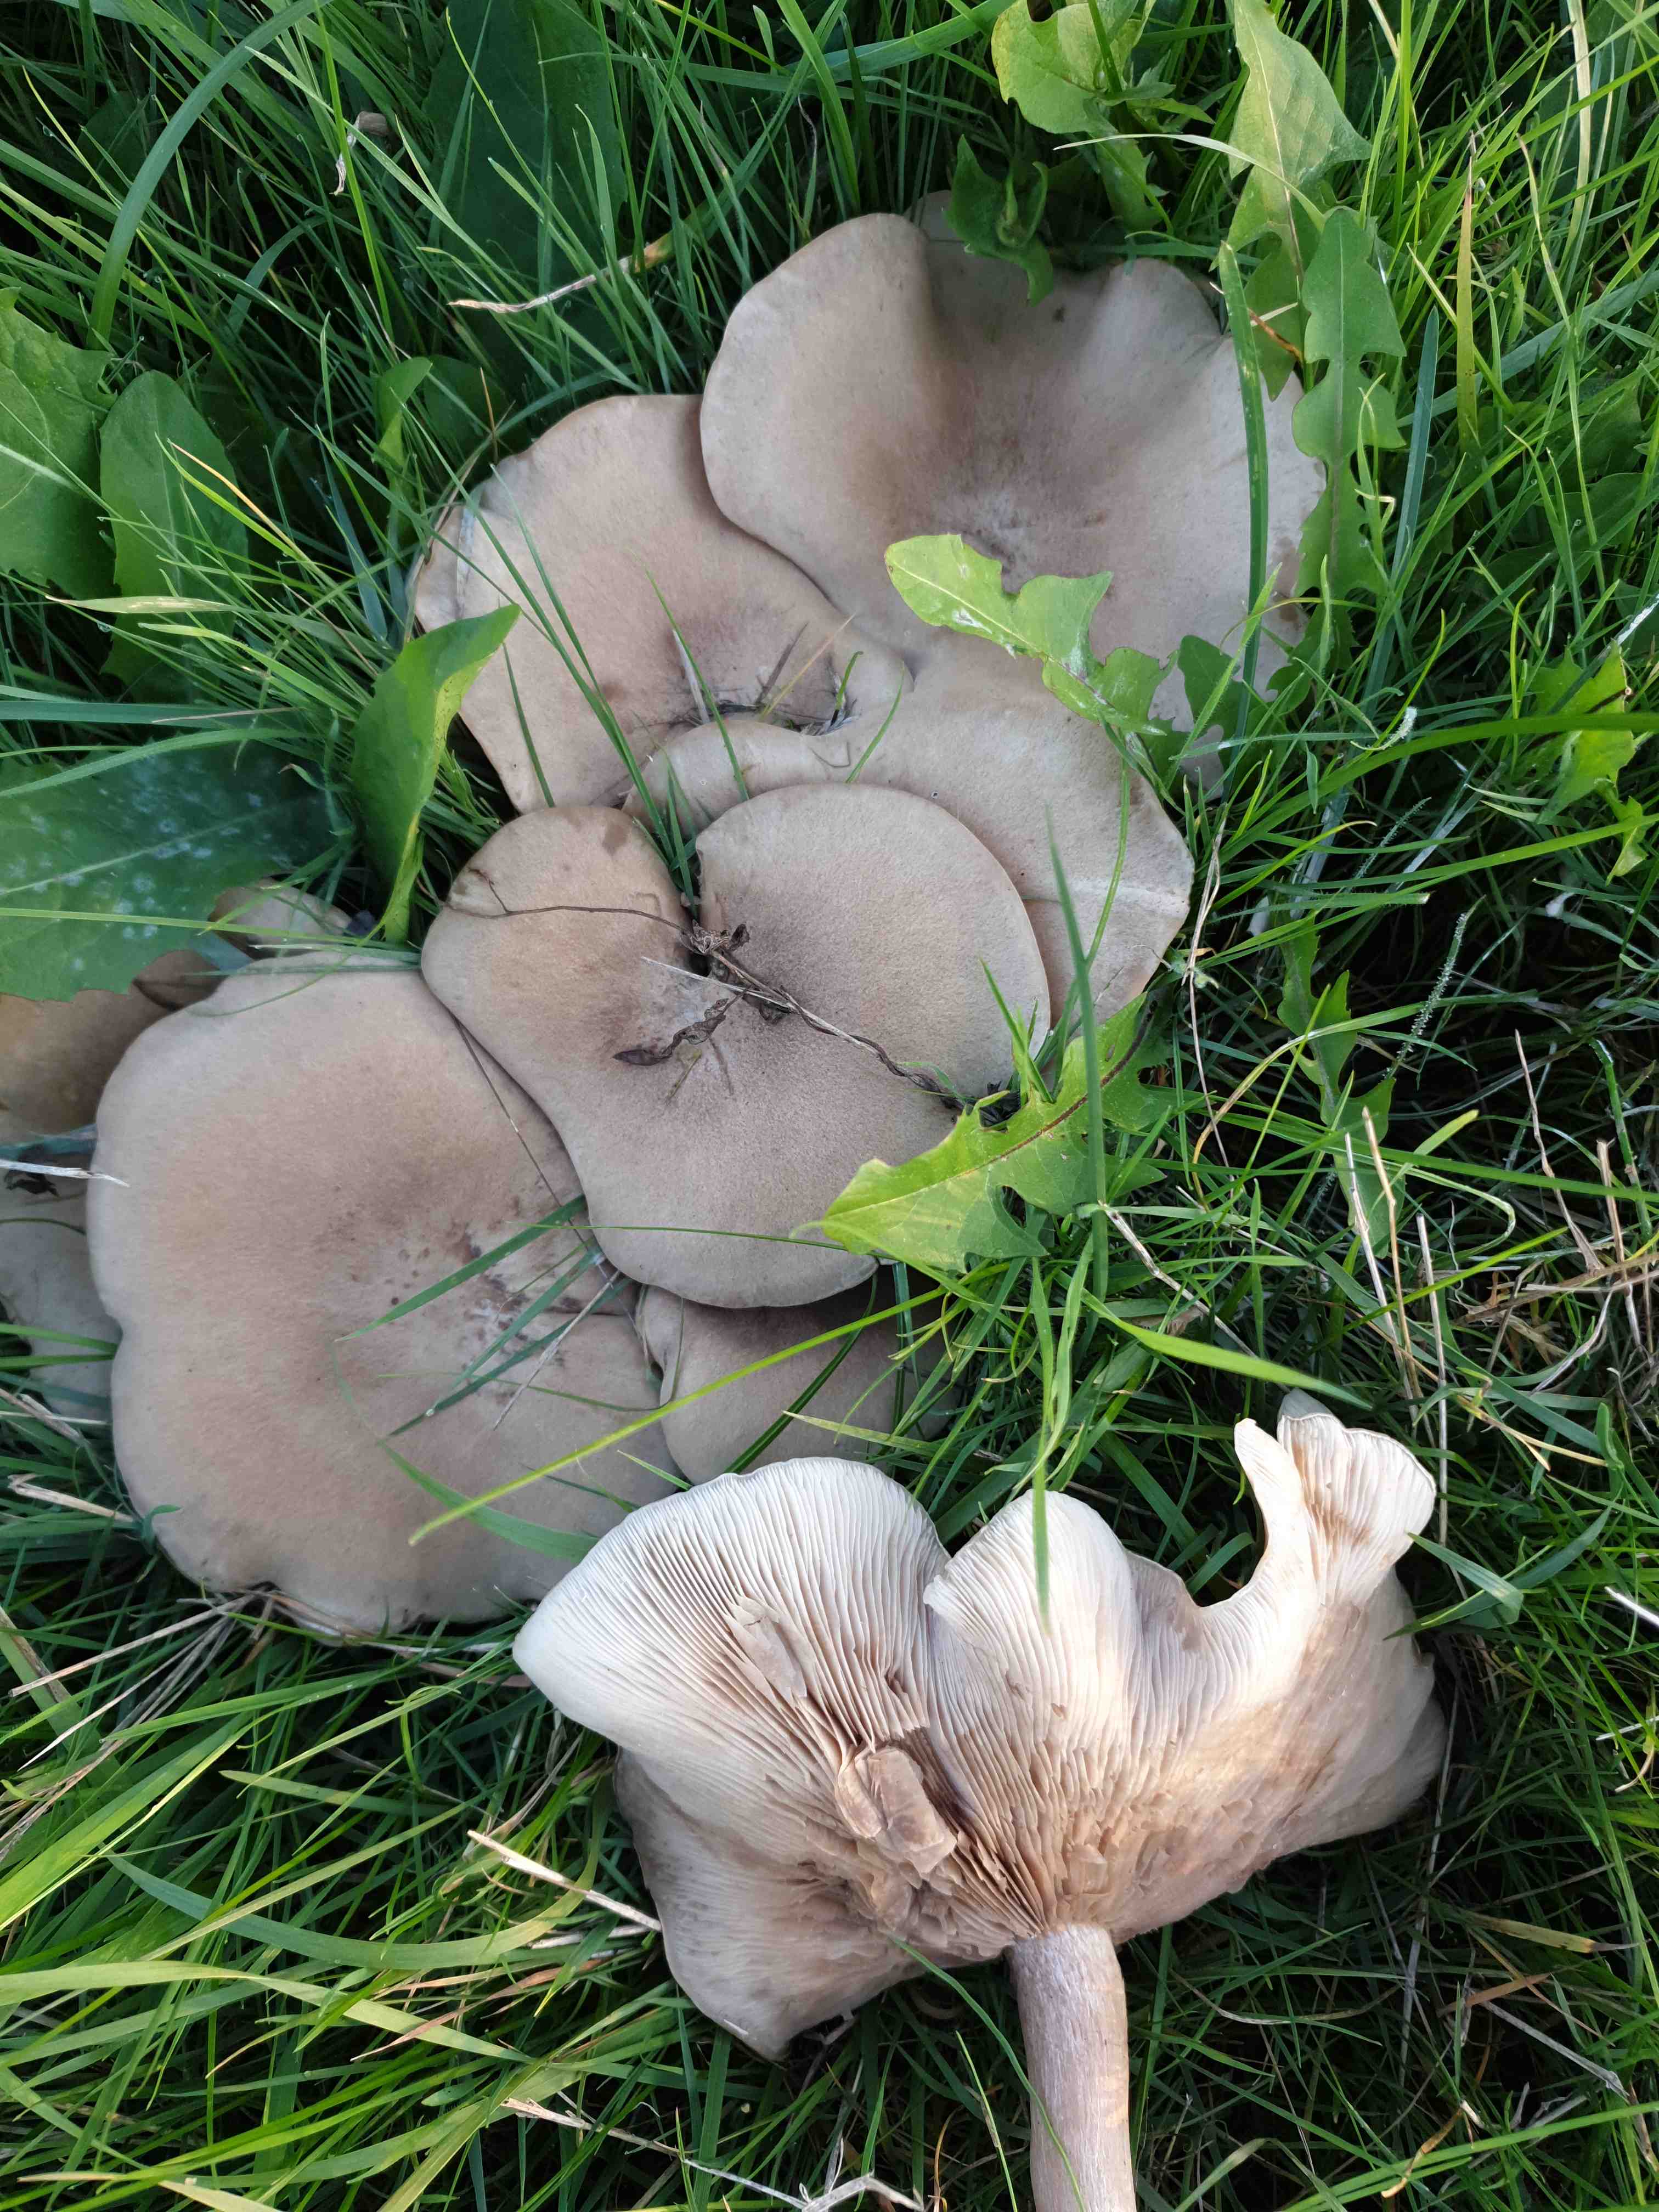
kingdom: Fungi
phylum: Basidiomycota
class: Agaricomycetes
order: Agaricales
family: Tricholomataceae
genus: Lepista
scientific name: Lepista panaeolus
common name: marmoreret hekseringshat
